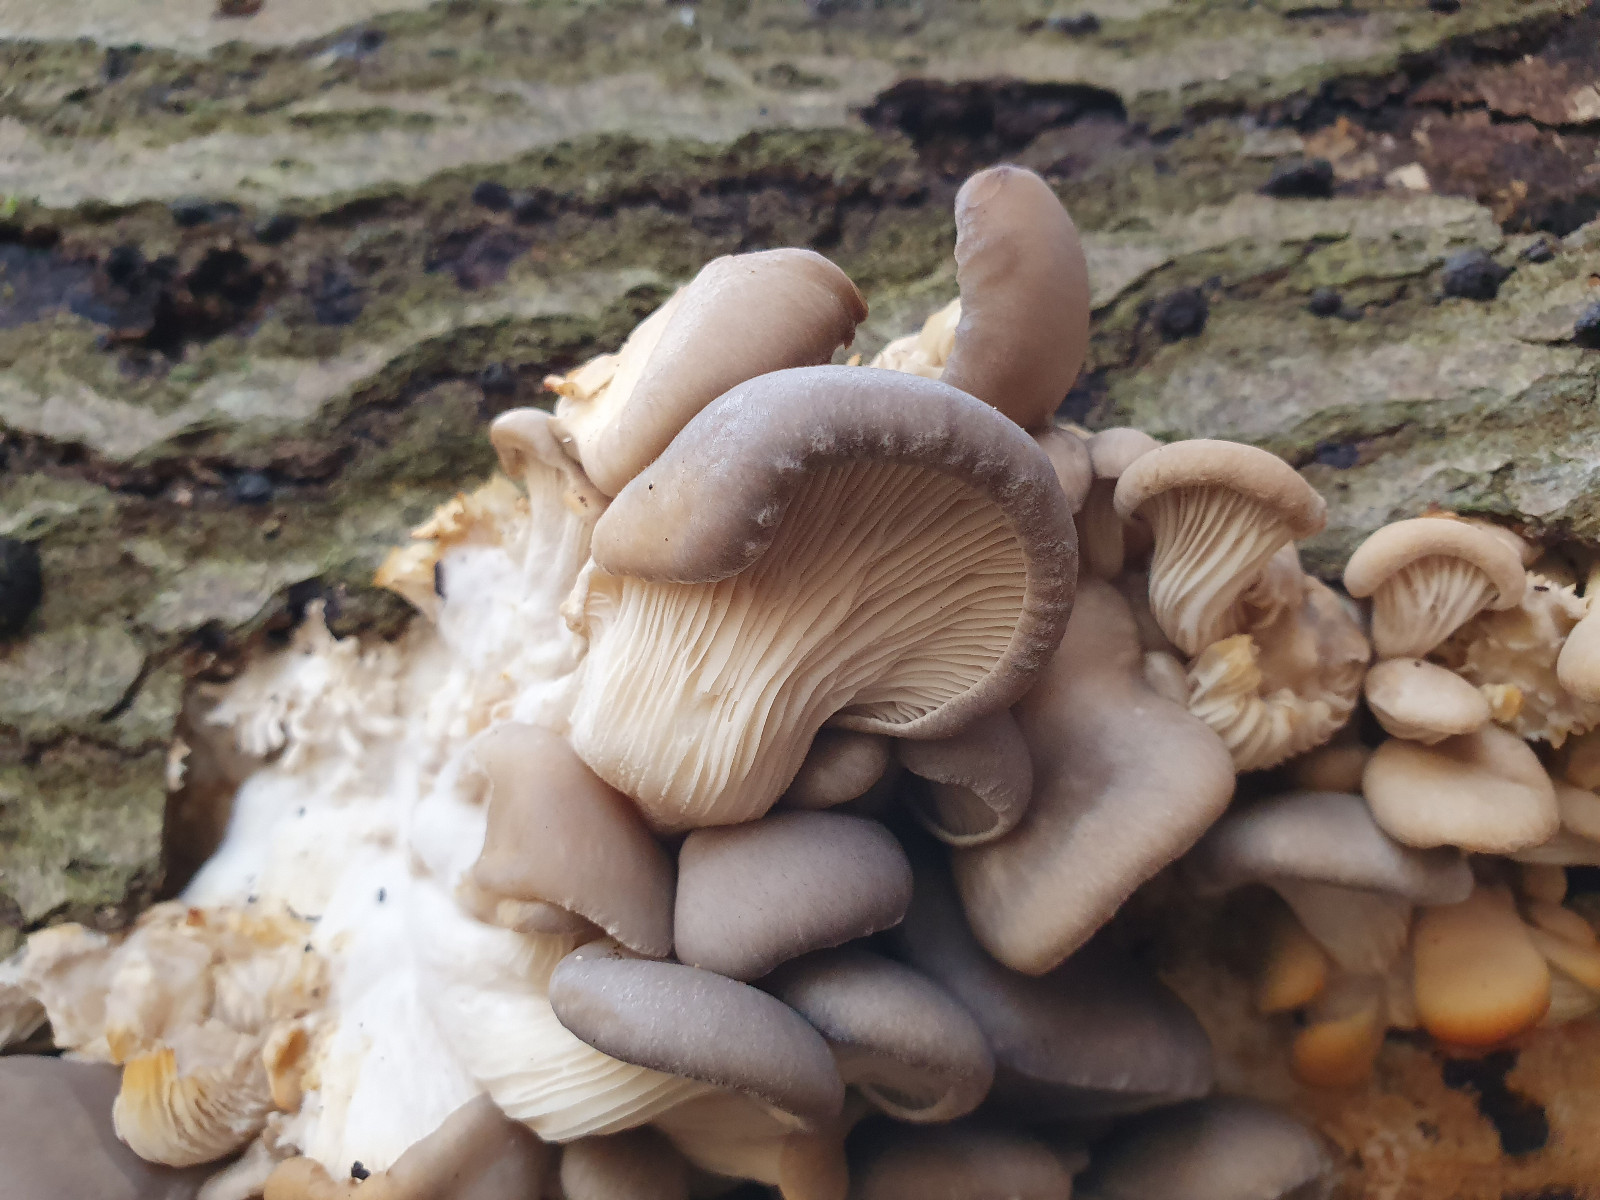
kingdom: Fungi
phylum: Basidiomycota
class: Agaricomycetes
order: Agaricales
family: Pleurotaceae
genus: Pleurotus
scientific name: Pleurotus ostreatus
